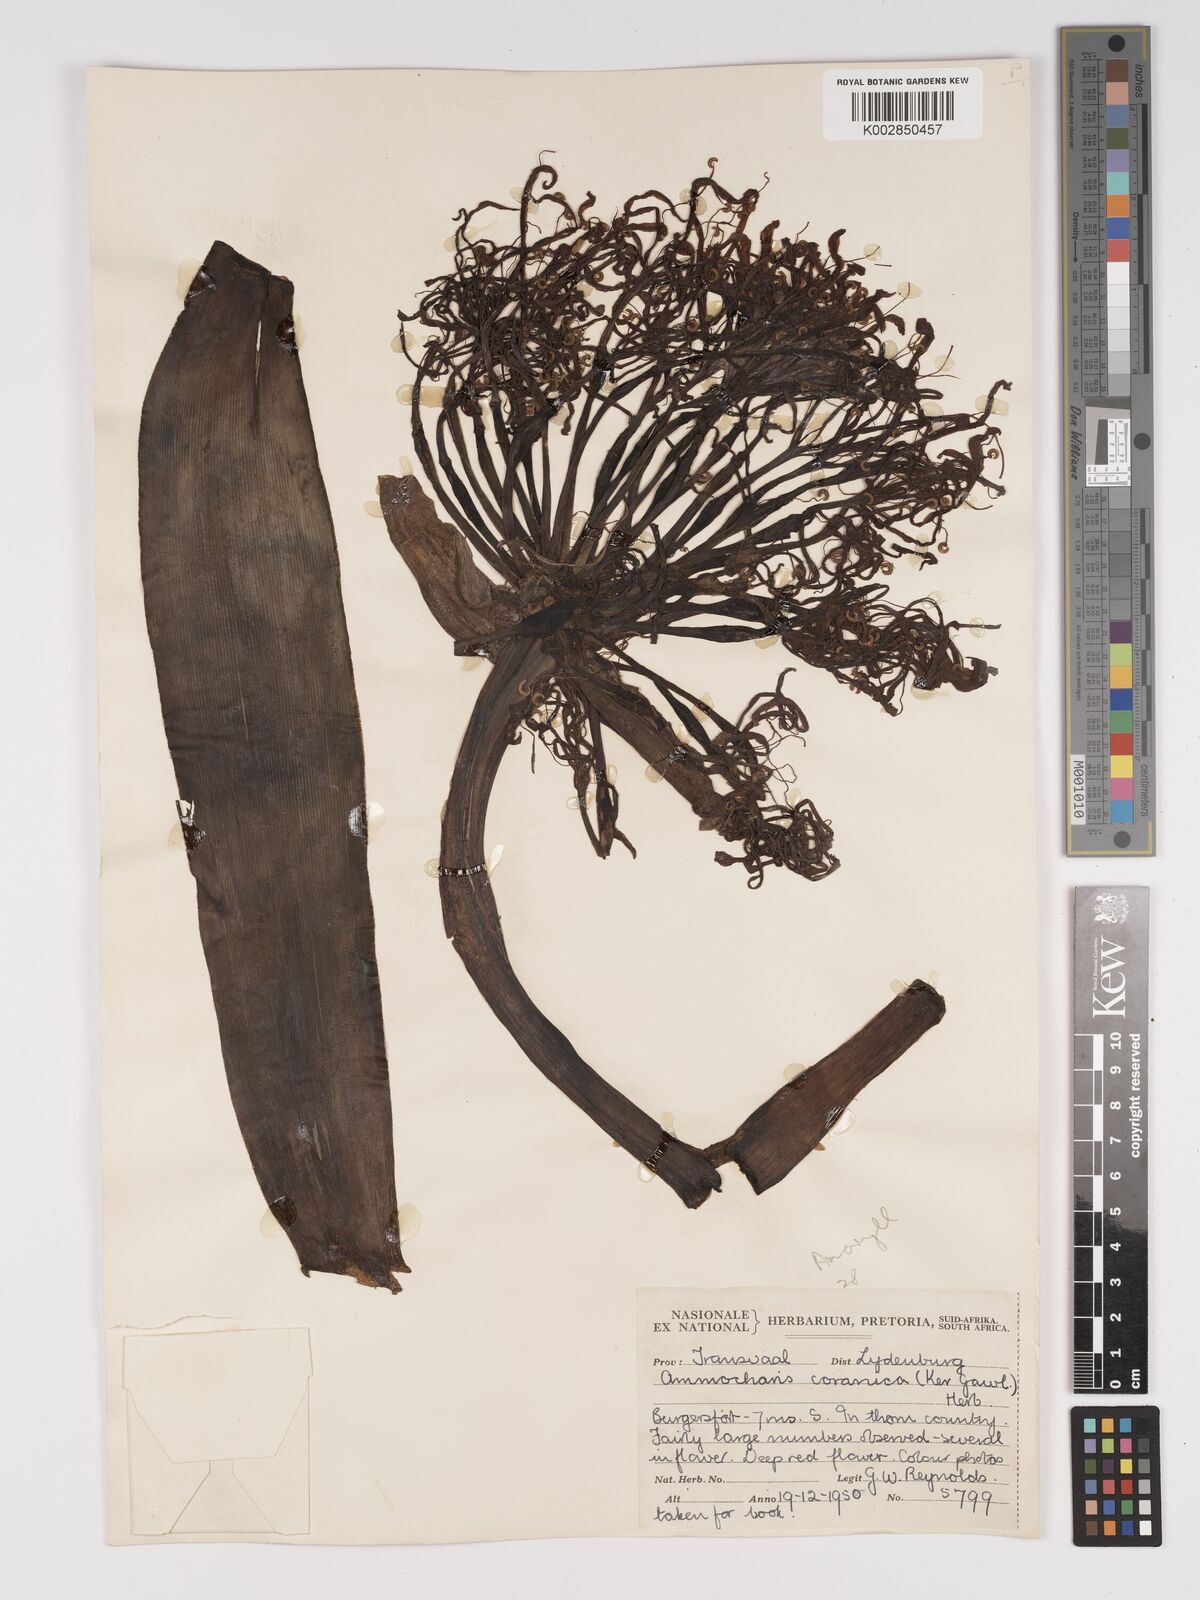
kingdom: Plantae
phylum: Tracheophyta
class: Liliopsida
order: Asparagales
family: Amaryllidaceae
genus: Ammocharis
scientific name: Ammocharis coranica
